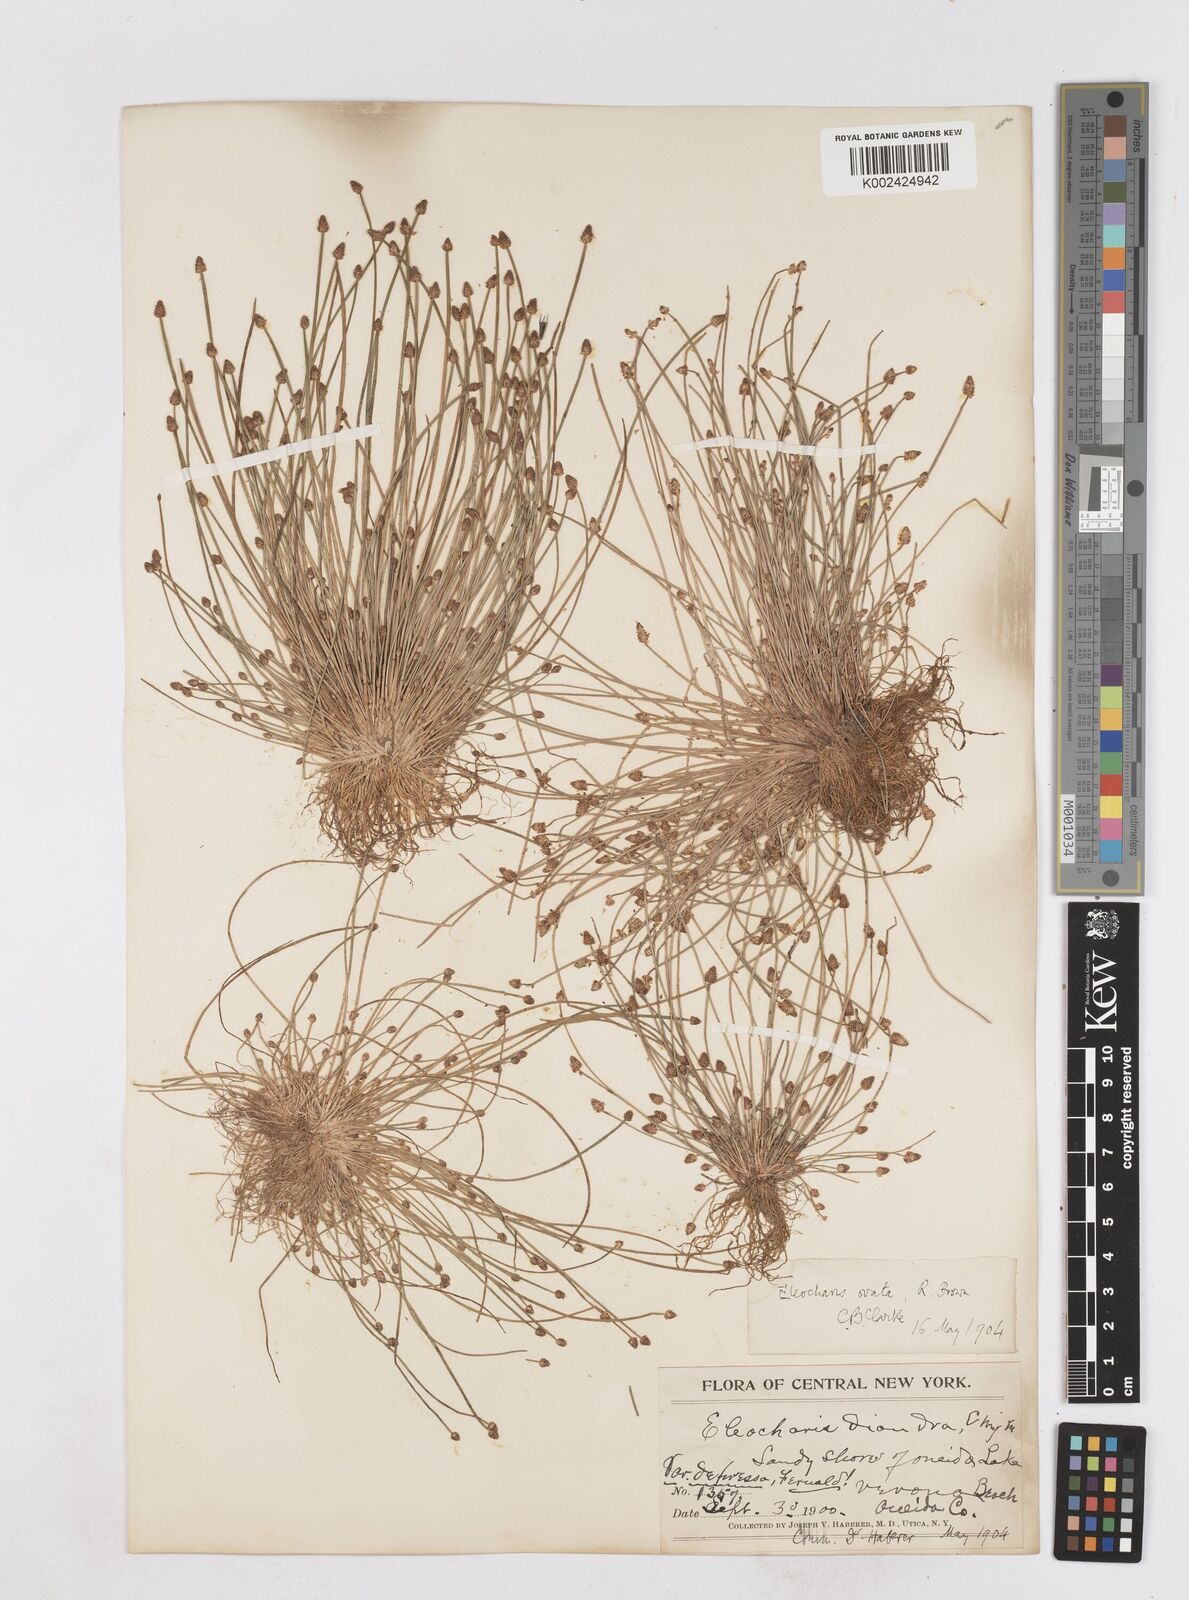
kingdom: Plantae
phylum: Tracheophyta
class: Liliopsida
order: Poales
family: Cyperaceae
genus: Eleocharis
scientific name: Eleocharis ovata
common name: Oval spike-rush
